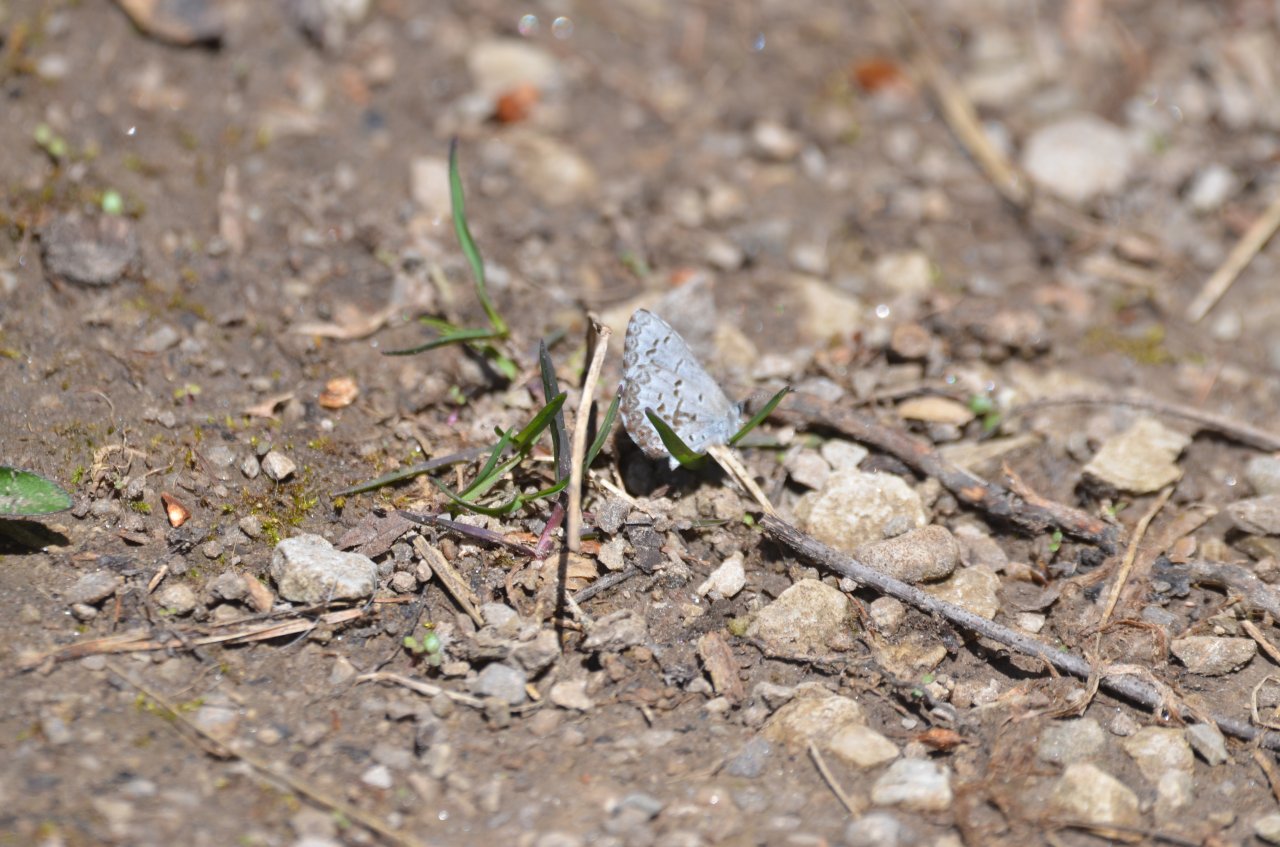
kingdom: Animalia
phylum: Arthropoda
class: Insecta
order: Lepidoptera
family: Lycaenidae
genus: Celastrina
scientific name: Celastrina lucia
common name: Northern Spring Azure
